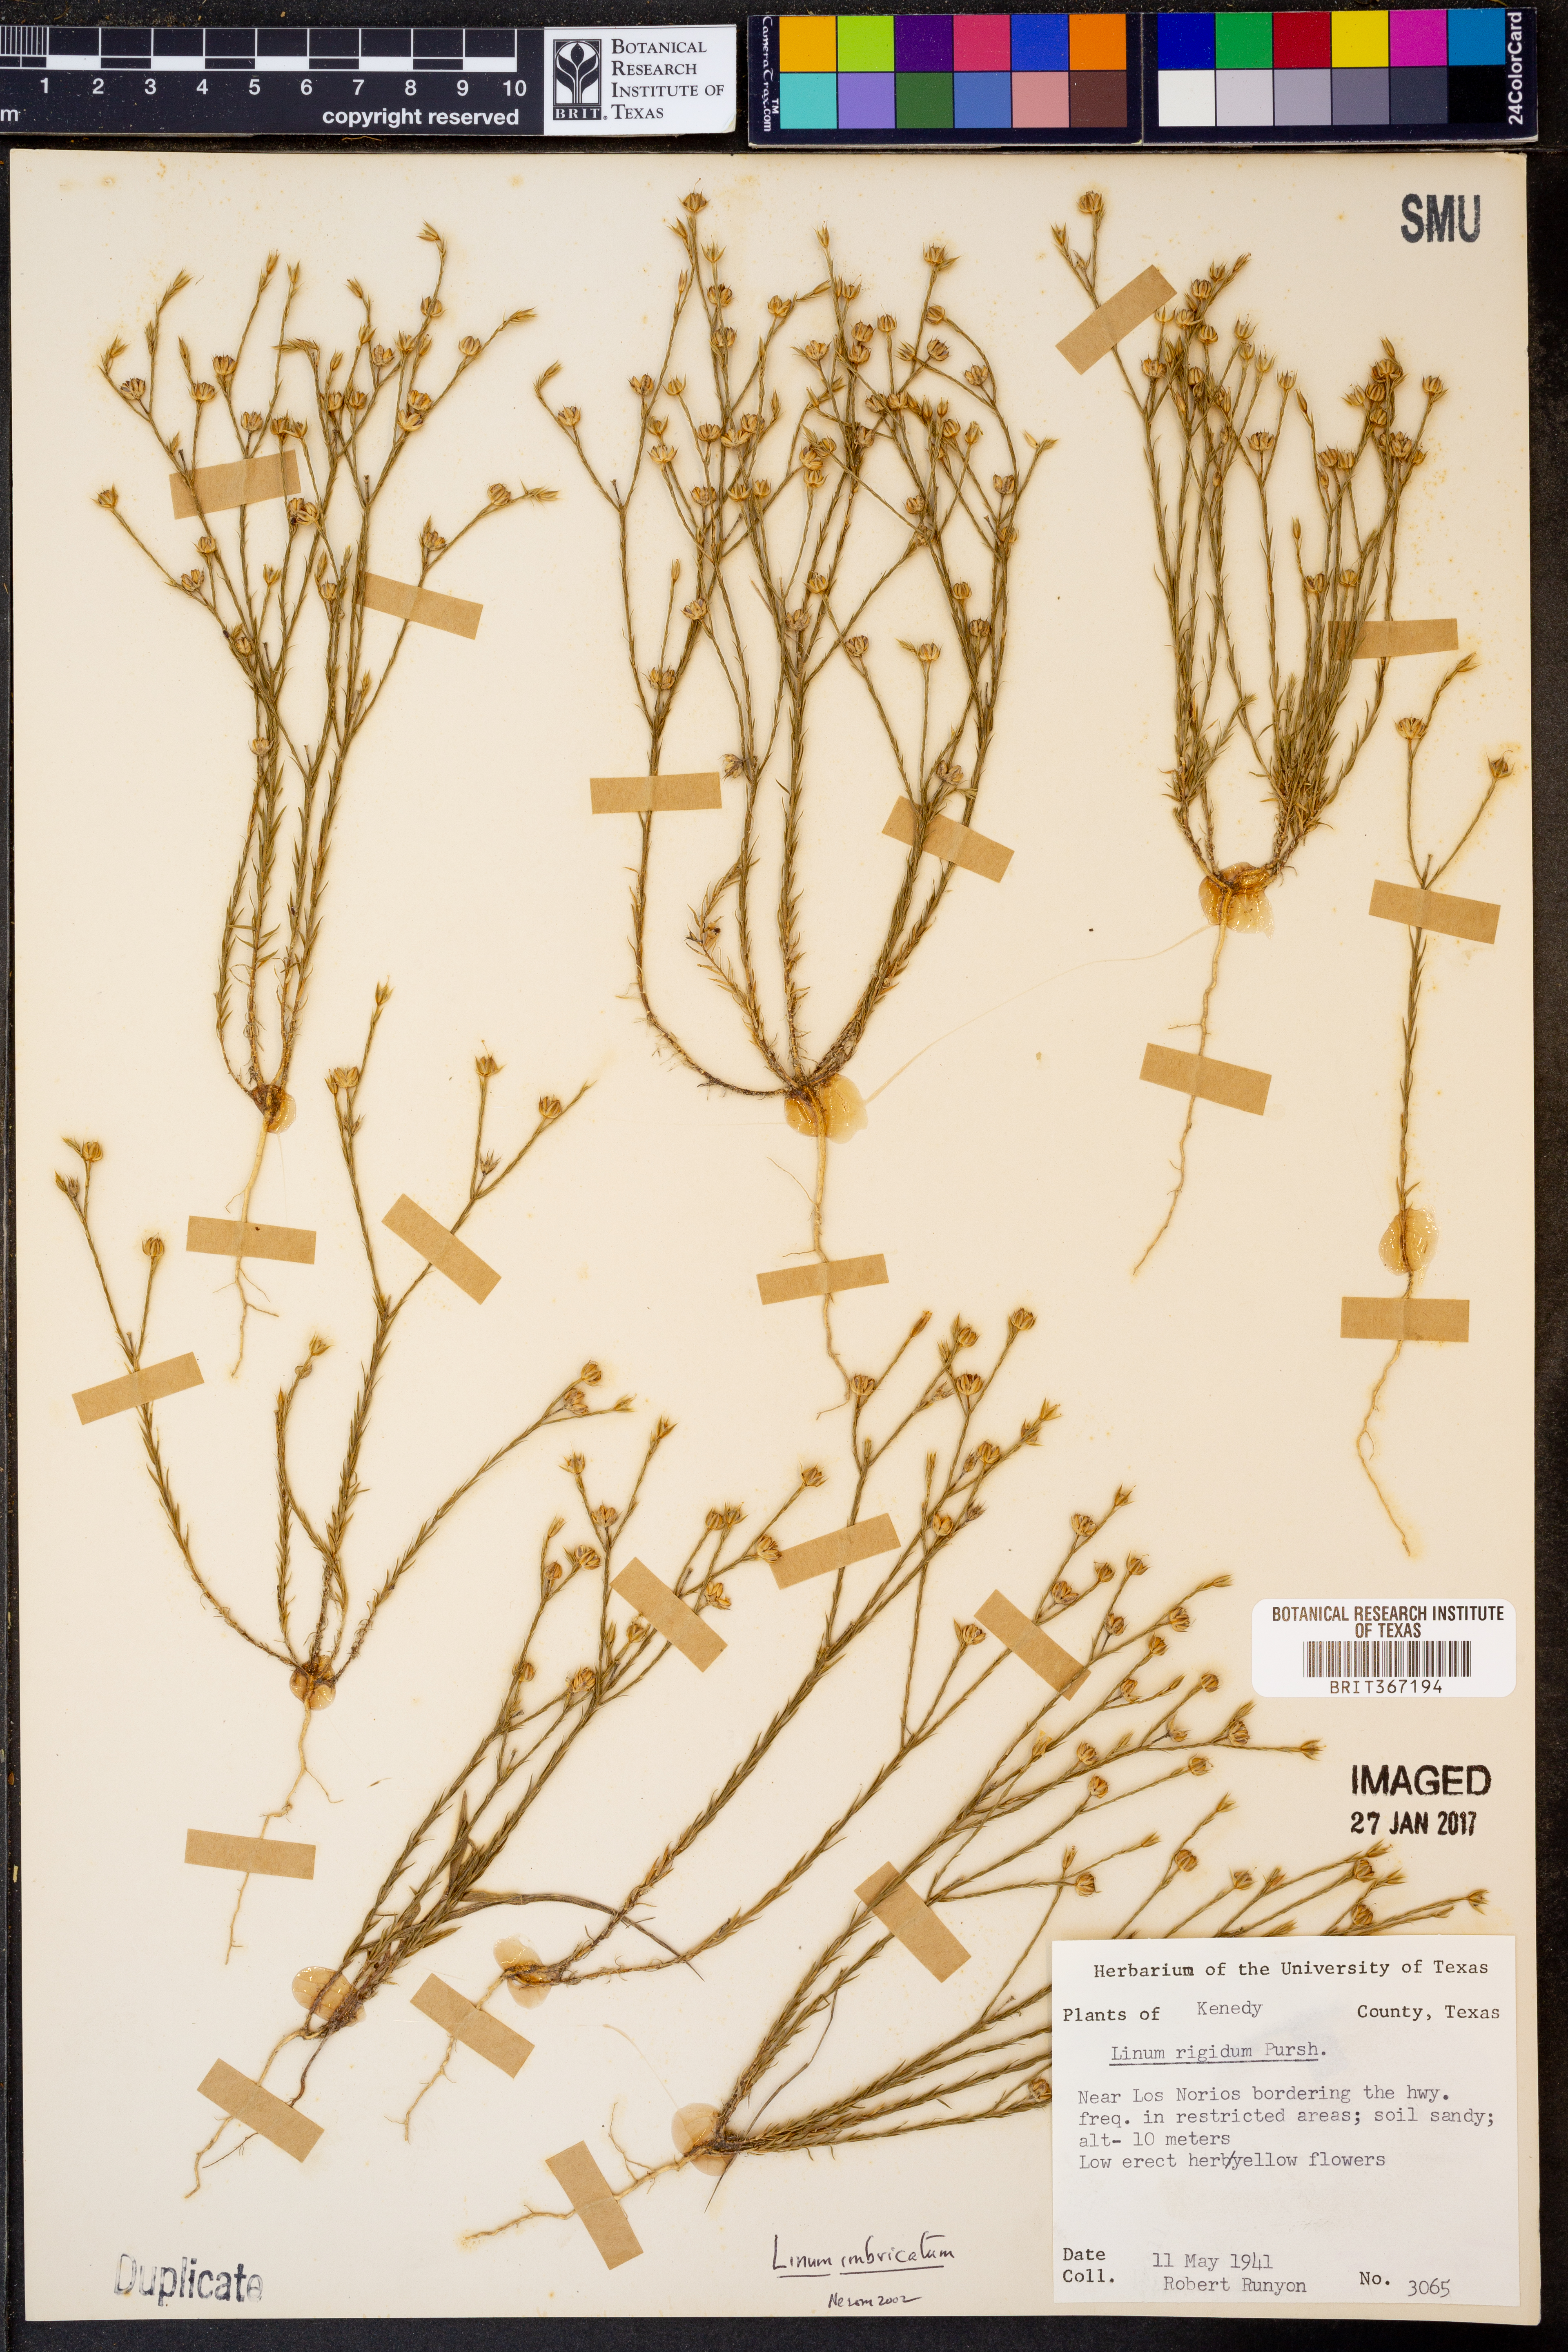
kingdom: Plantae
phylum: Tracheophyta
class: Magnoliopsida
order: Malpighiales
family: Linaceae
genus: Linum
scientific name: Linum rigidum
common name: Stiff-stem flax
